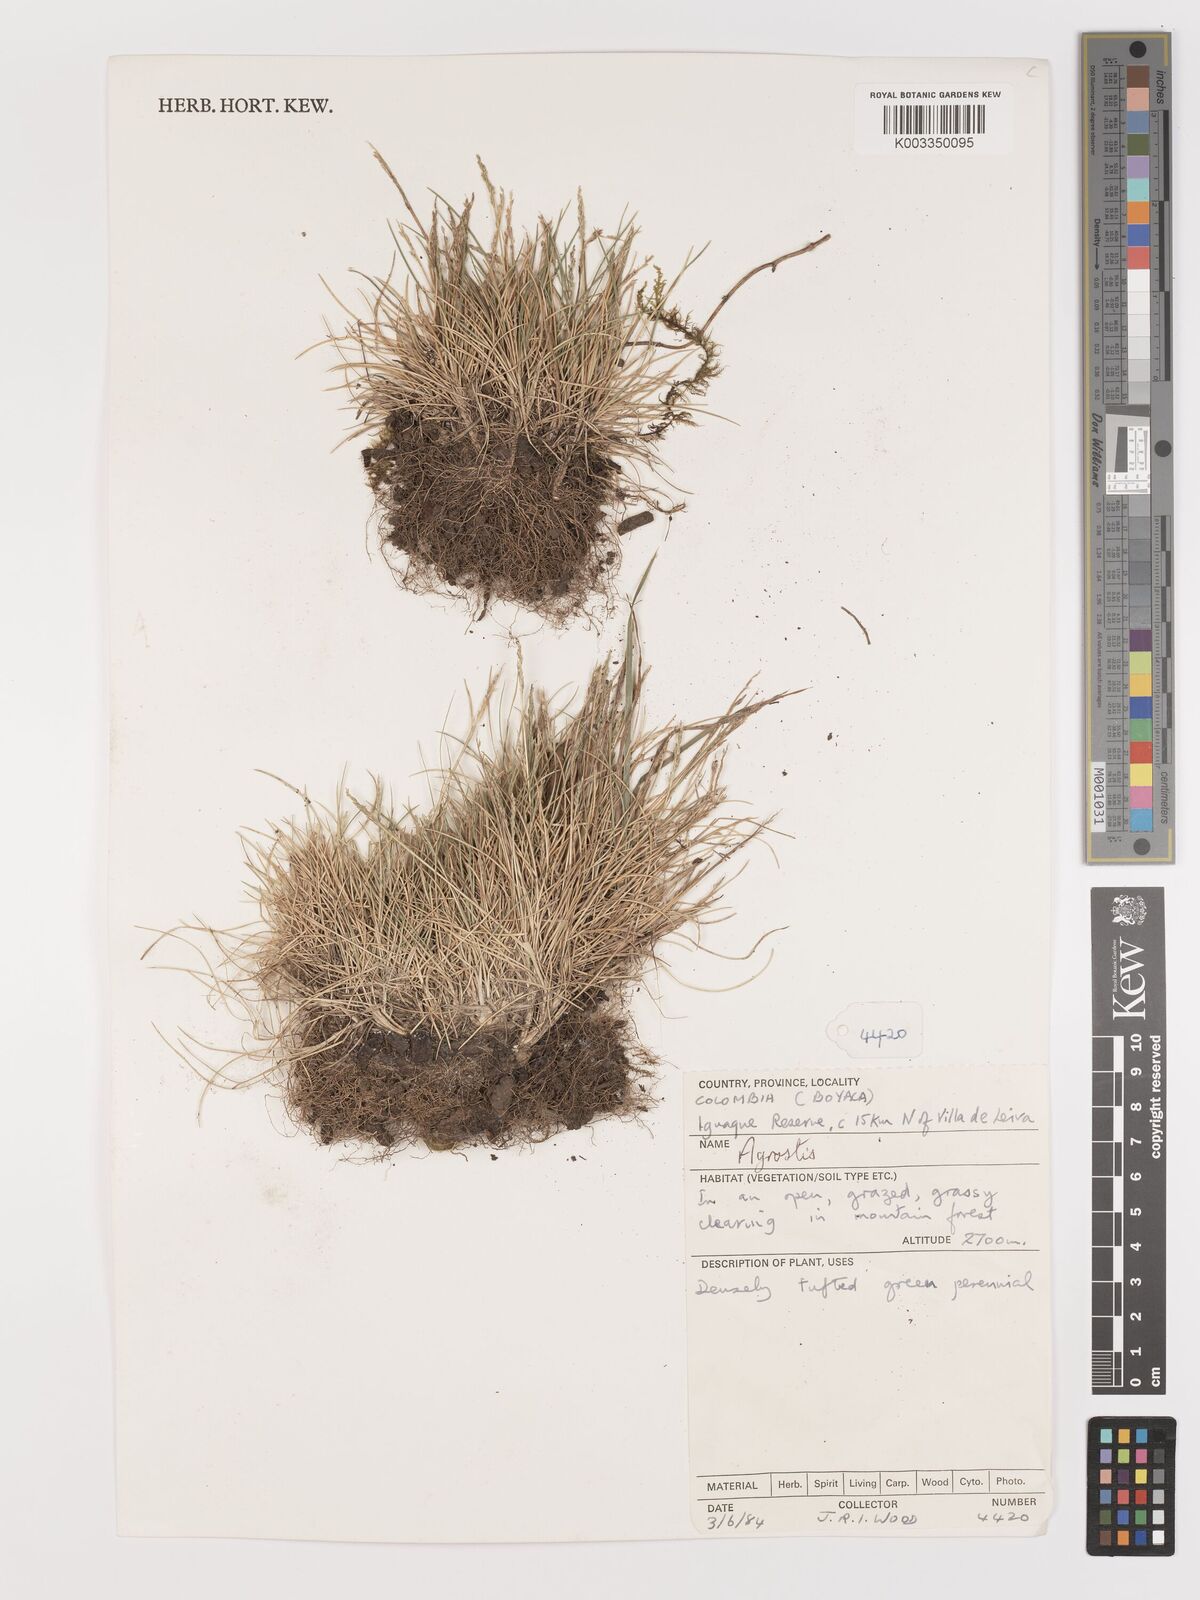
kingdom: Plantae
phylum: Tracheophyta
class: Liliopsida
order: Poales
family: Poaceae
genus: Agrostis
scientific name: Agrostis
